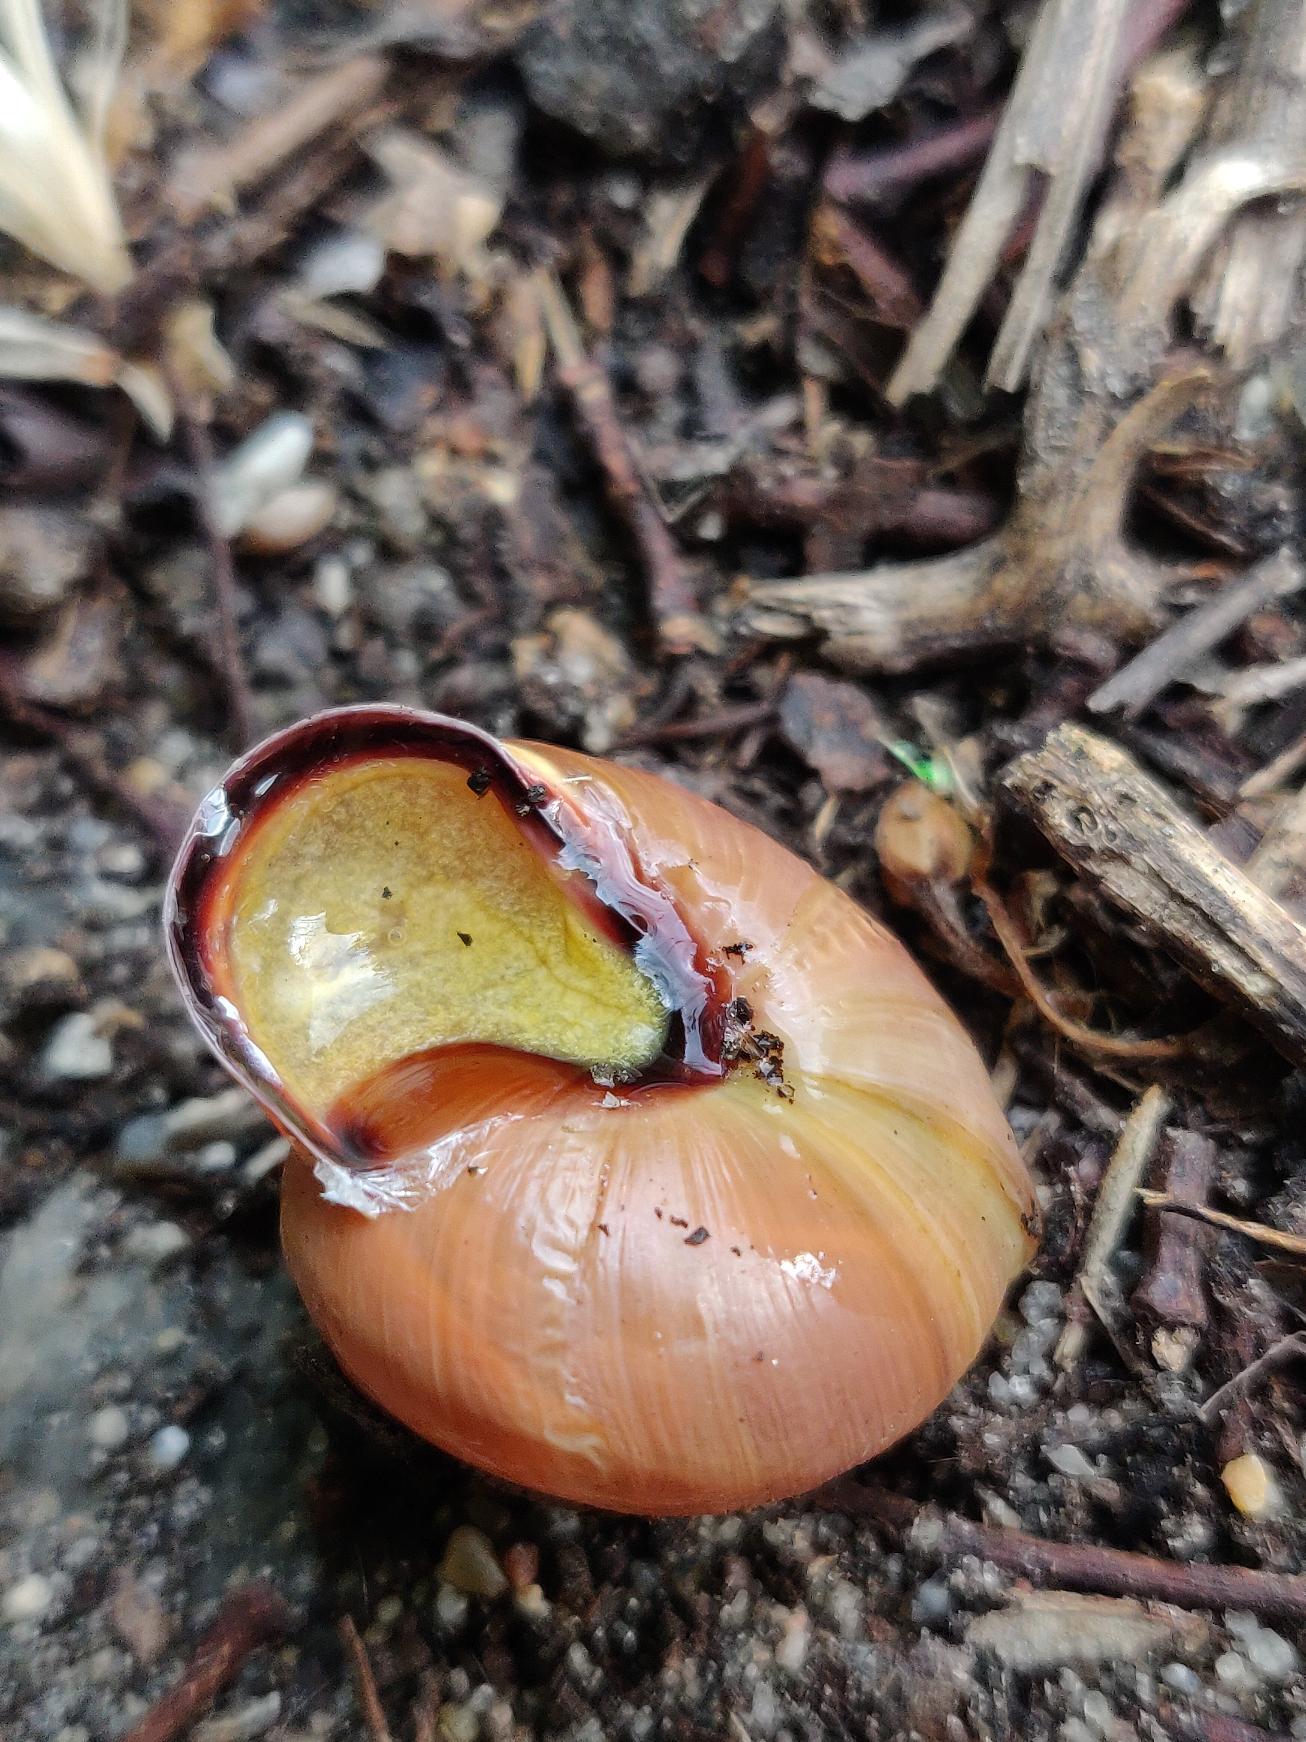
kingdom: Animalia
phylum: Mollusca
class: Gastropoda
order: Stylommatophora
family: Helicidae
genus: Cepaea
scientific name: Cepaea nemoralis
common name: Lundsnegl
